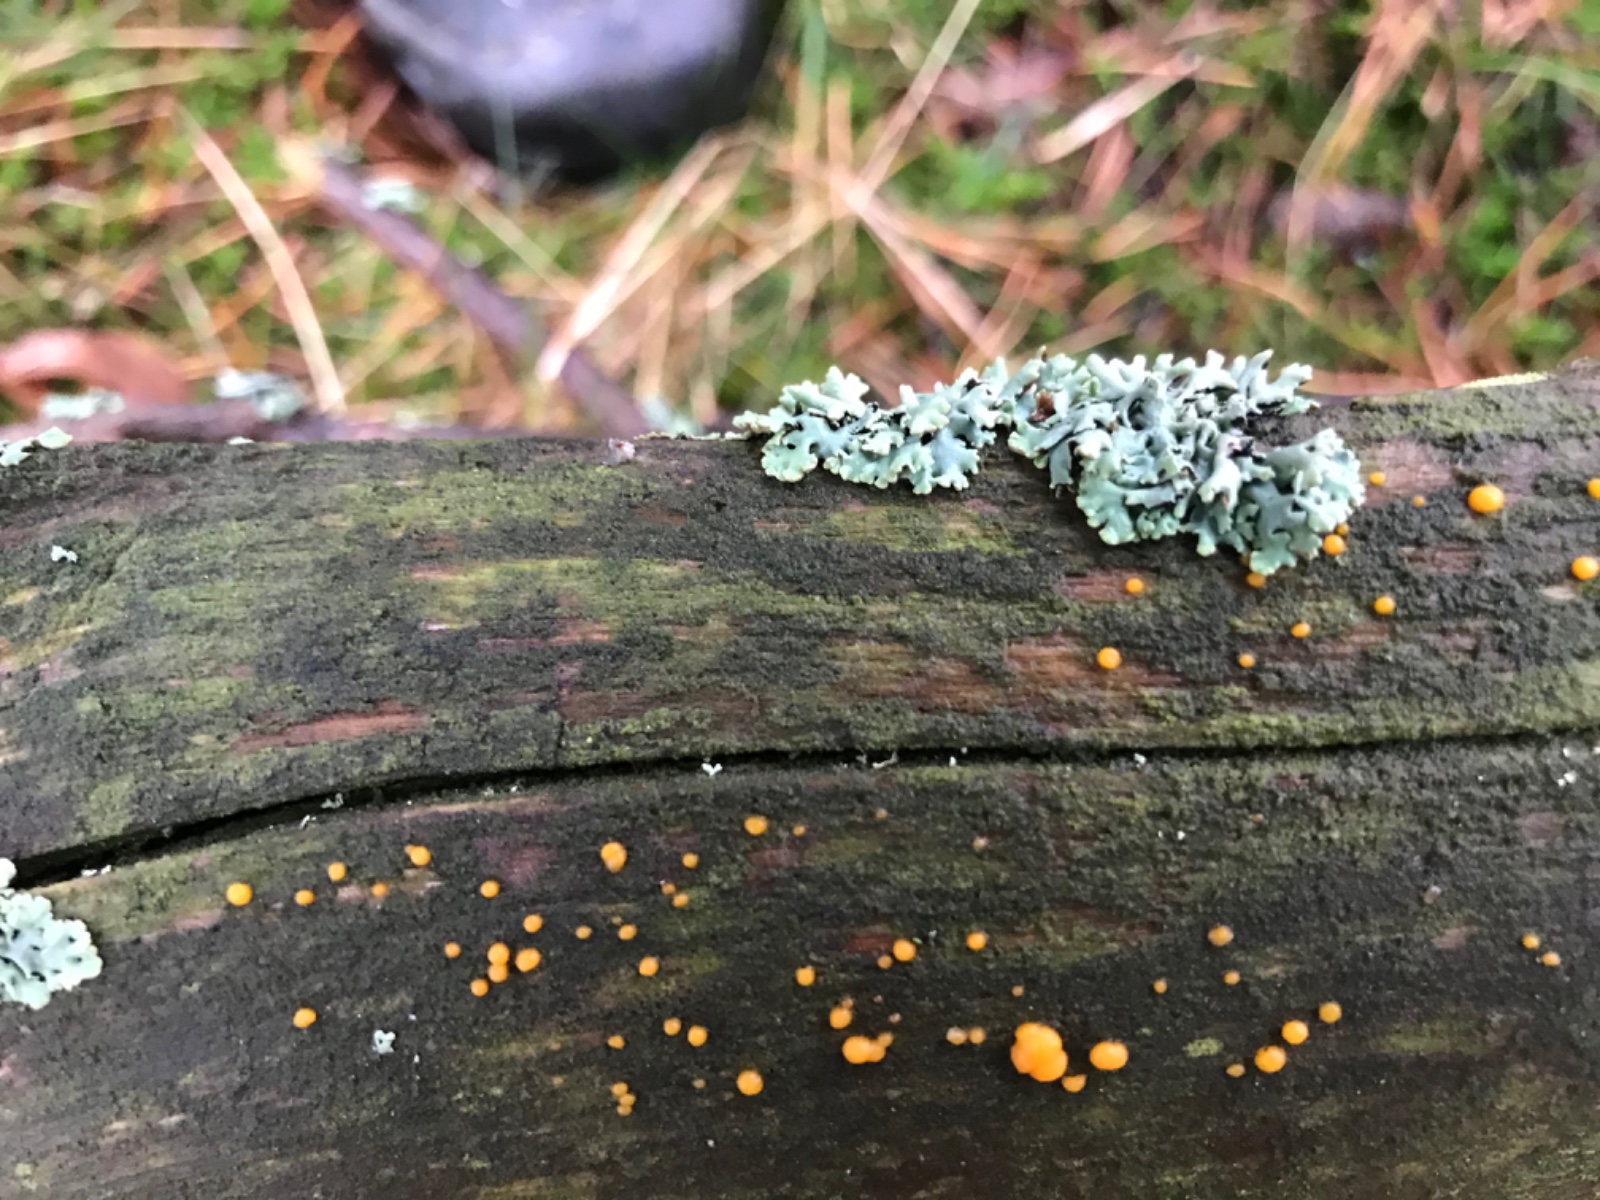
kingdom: Fungi
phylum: Basidiomycota
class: Dacrymycetes
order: Dacrymycetales
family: Dacrymycetaceae
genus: Dacrymyces
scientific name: Dacrymyces stillatus
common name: almindelig tåresvamp
